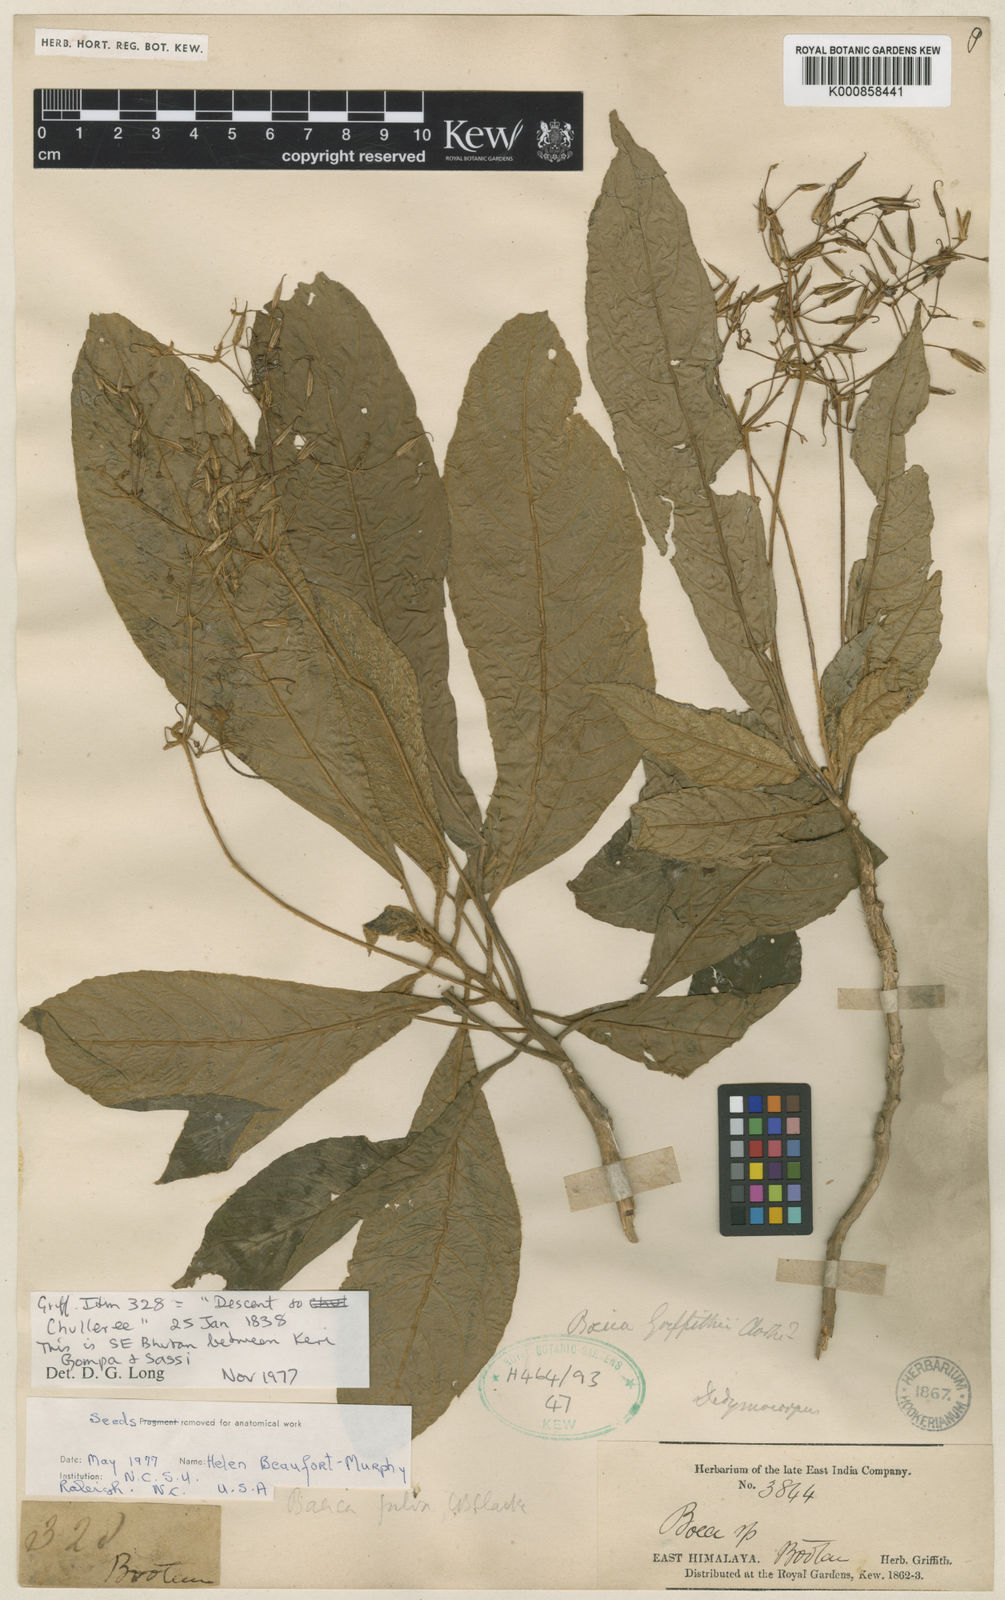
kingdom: Plantae
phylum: Tracheophyta
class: Magnoliopsida
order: Lamiales
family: Gesneriaceae
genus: Boeica
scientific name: Boeica fulva
